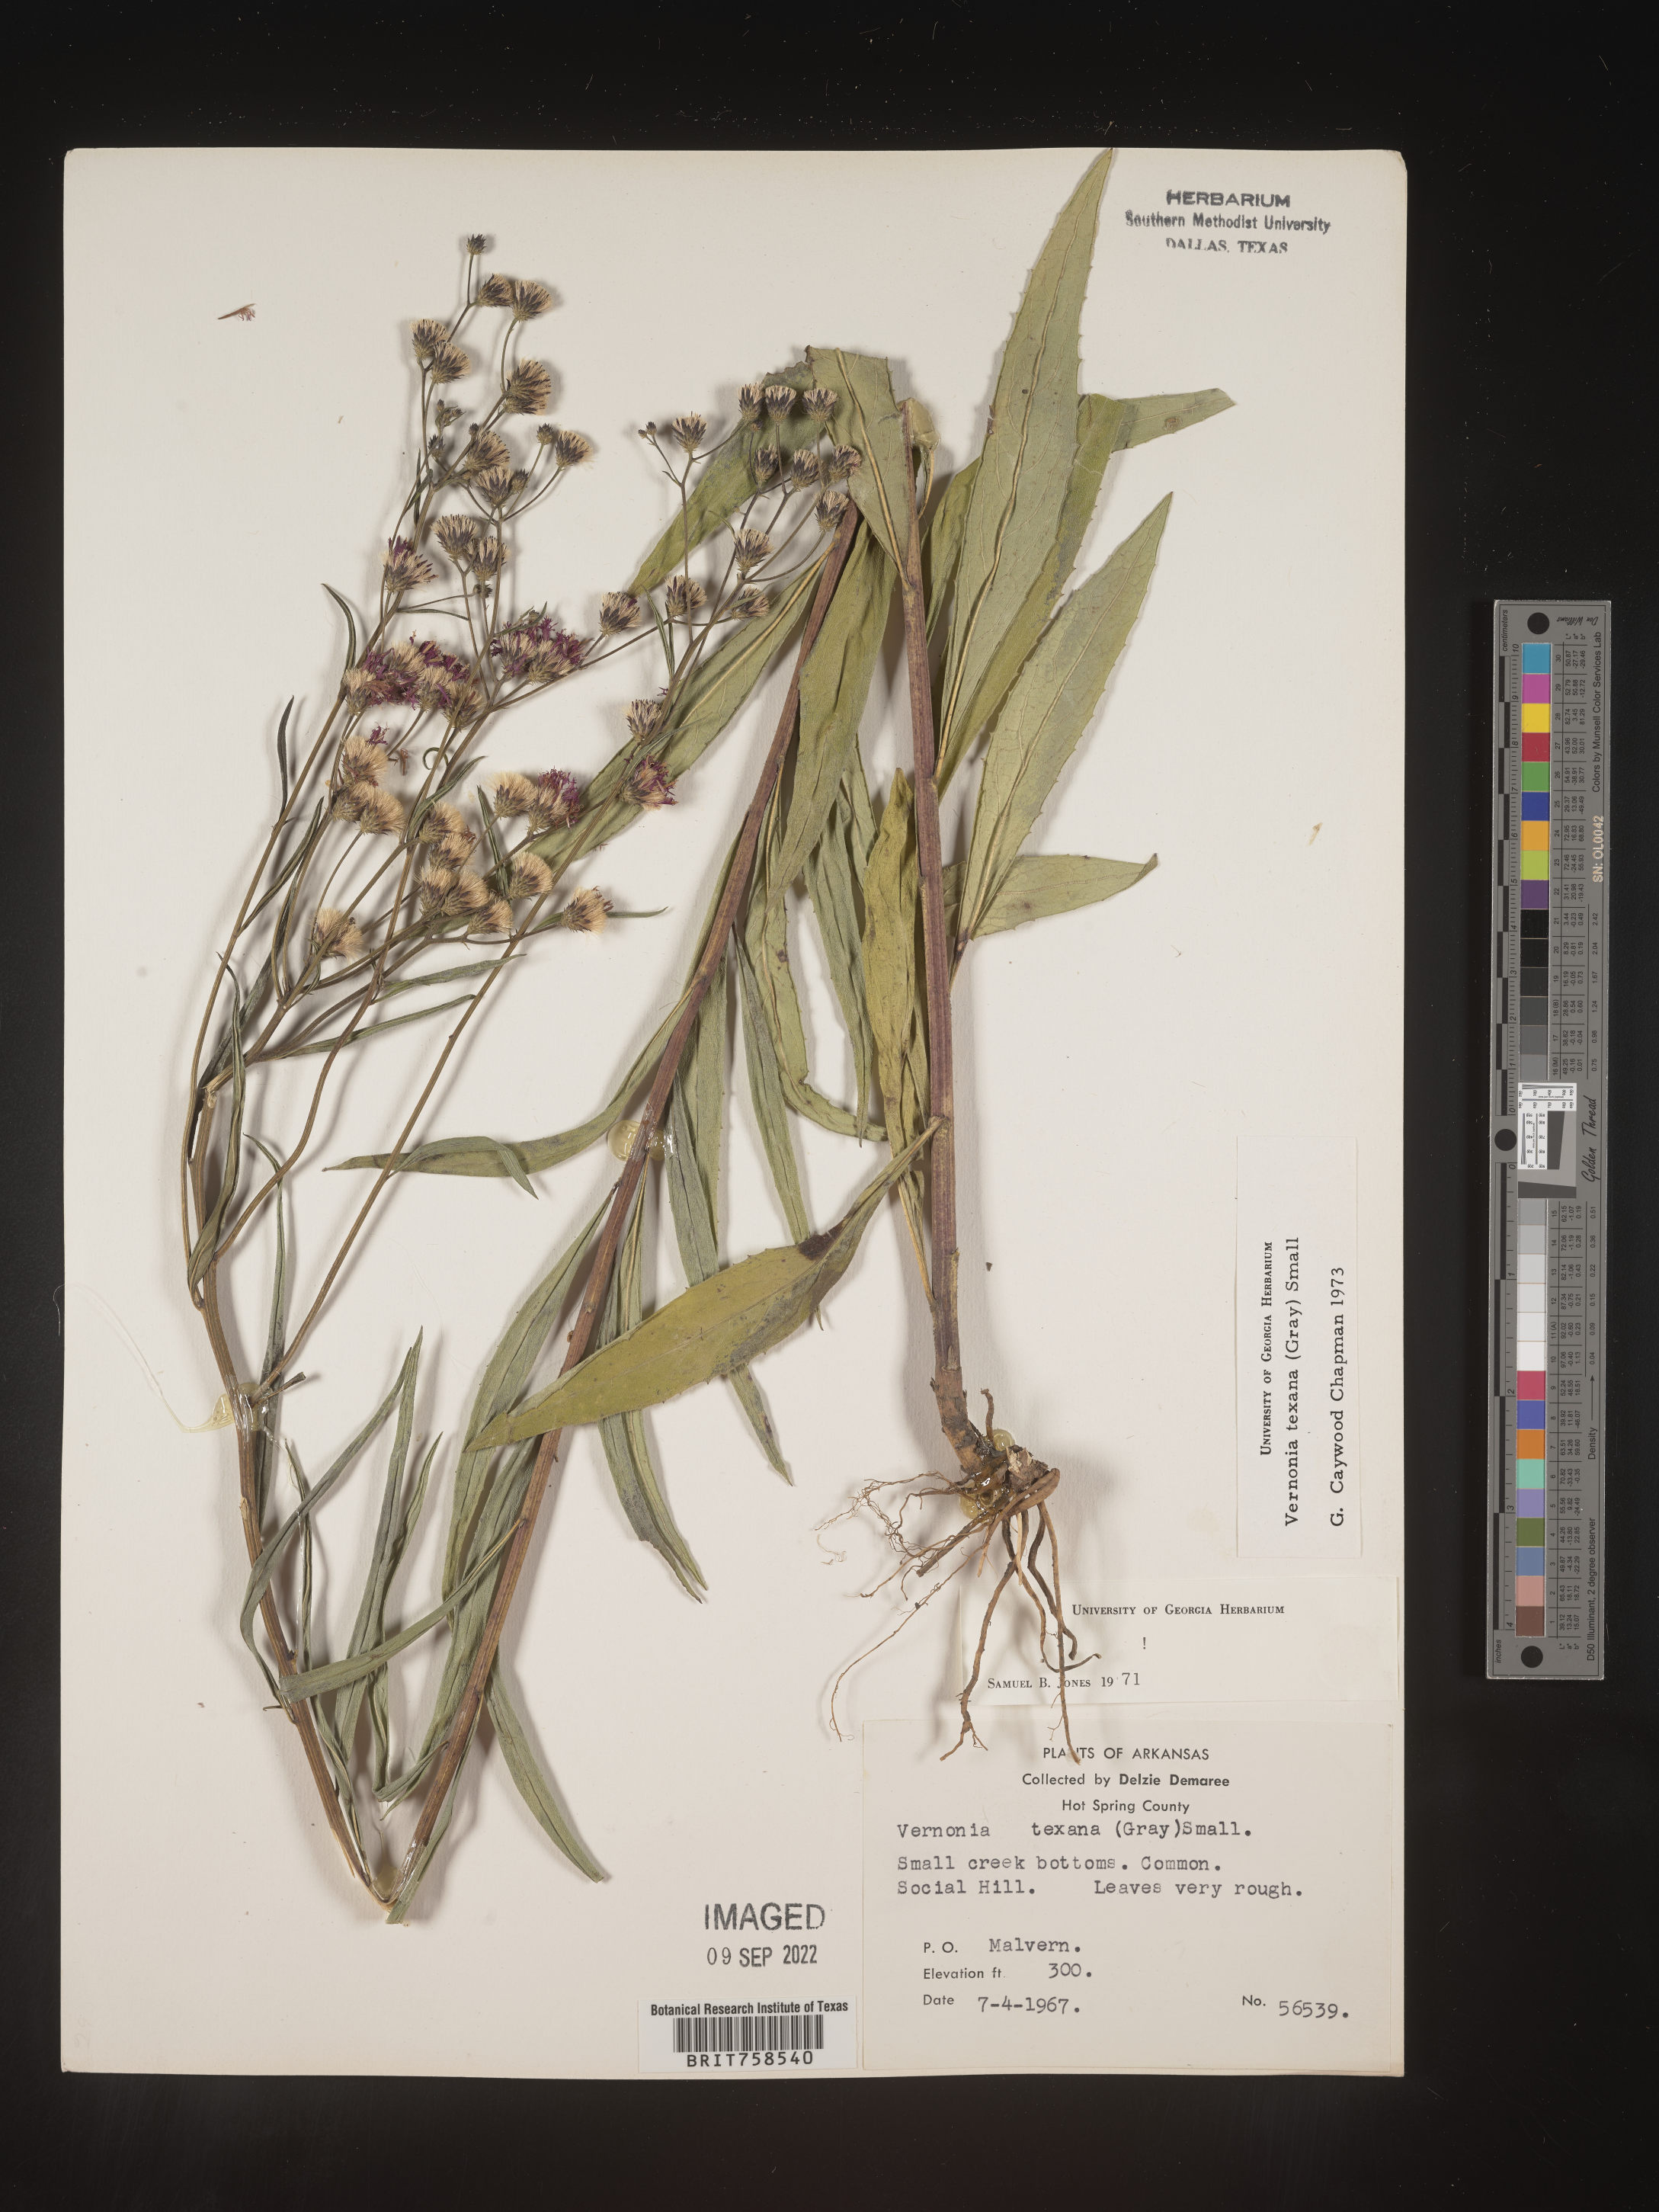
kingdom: Plantae
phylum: Tracheophyta
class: Magnoliopsida
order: Asterales
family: Asteraceae
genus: Vernonia
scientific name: Vernonia texana
